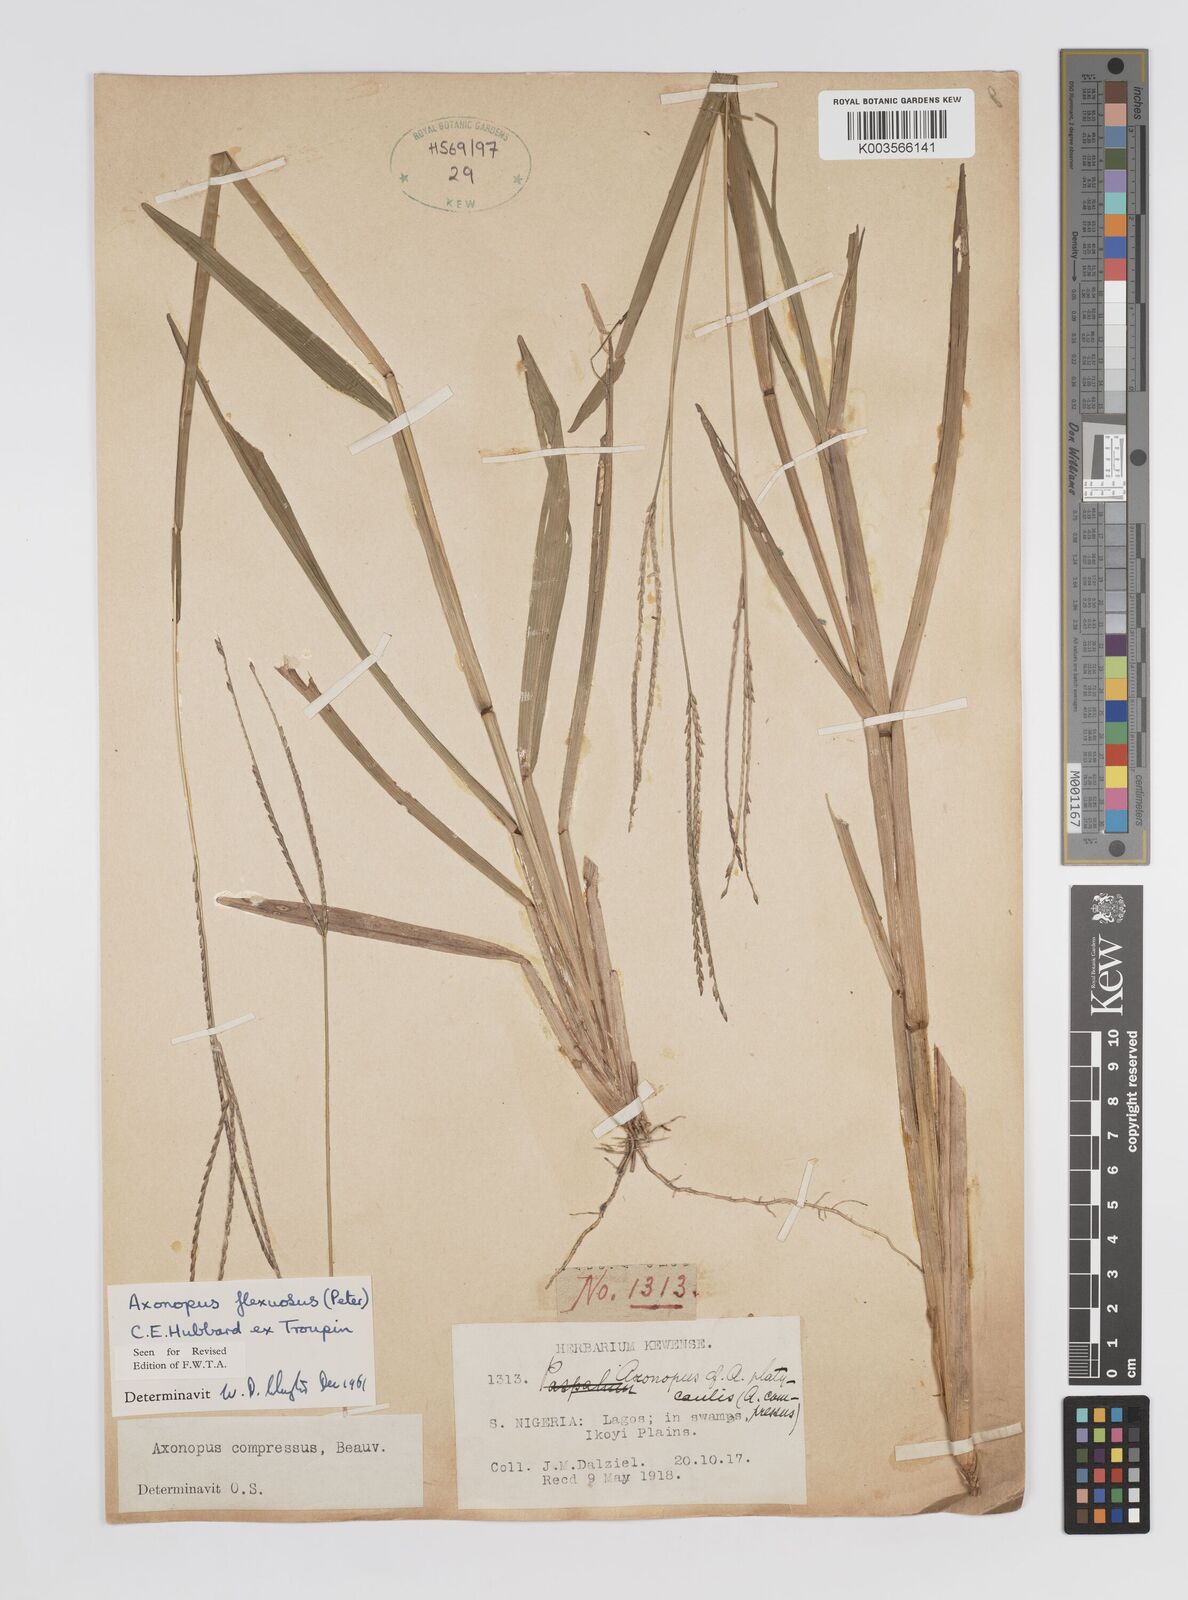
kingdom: Plantae
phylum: Tracheophyta
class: Liliopsida
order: Poales
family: Poaceae
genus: Axonopus
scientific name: Axonopus flexuosus
